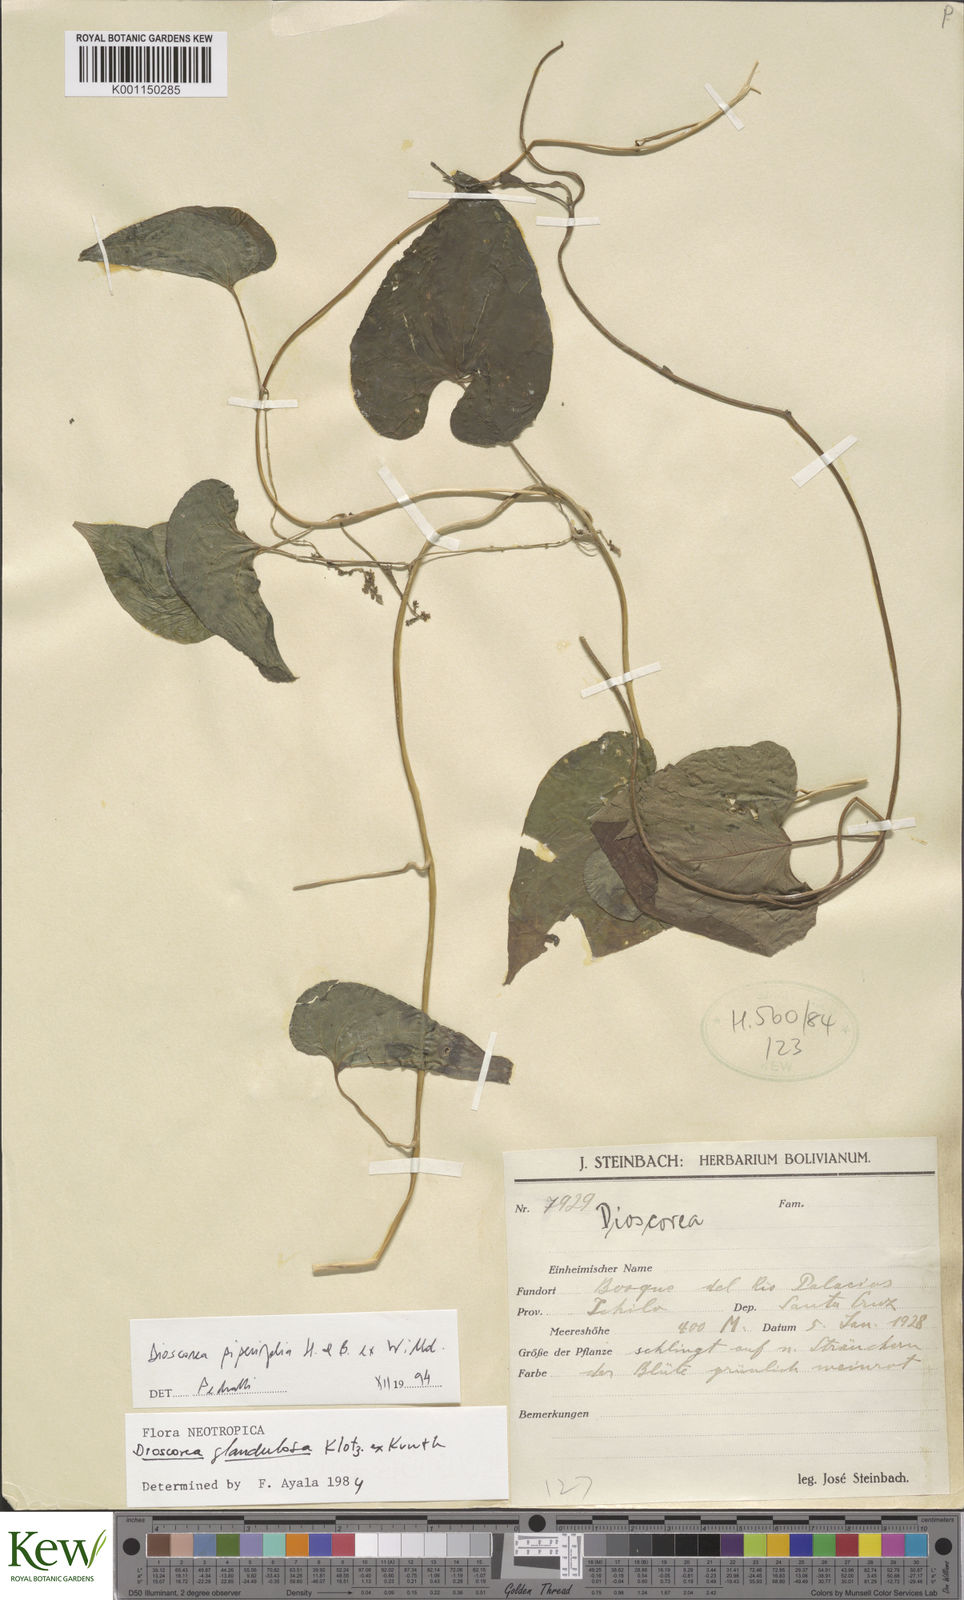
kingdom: Plantae
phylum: Tracheophyta
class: Liliopsida
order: Dioscoreales
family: Dioscoreaceae
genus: Dioscorea
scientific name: Dioscorea piperifolia
